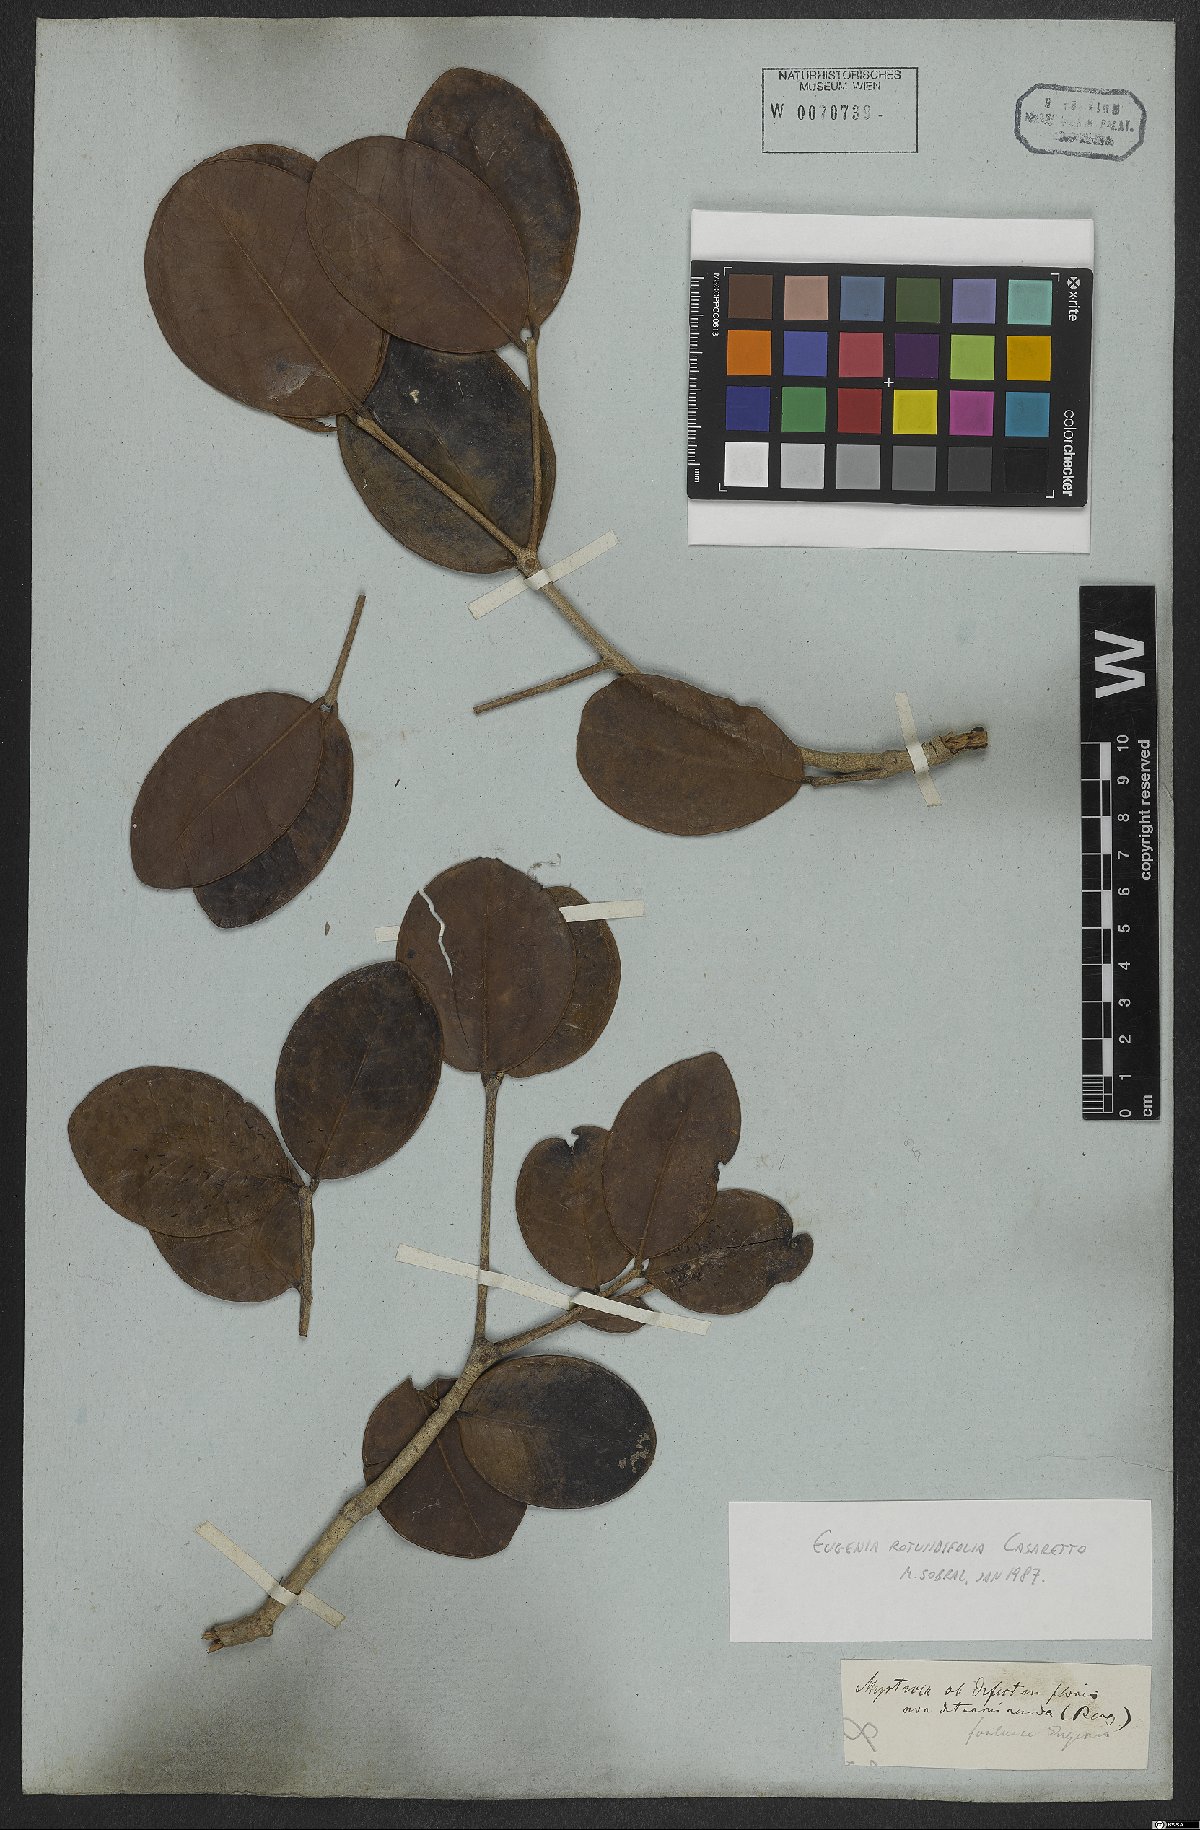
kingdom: Plantae
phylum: Tracheophyta
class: Magnoliopsida
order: Myrtales
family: Myrtaceae
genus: Eugenia
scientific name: Eugenia casarettoana
